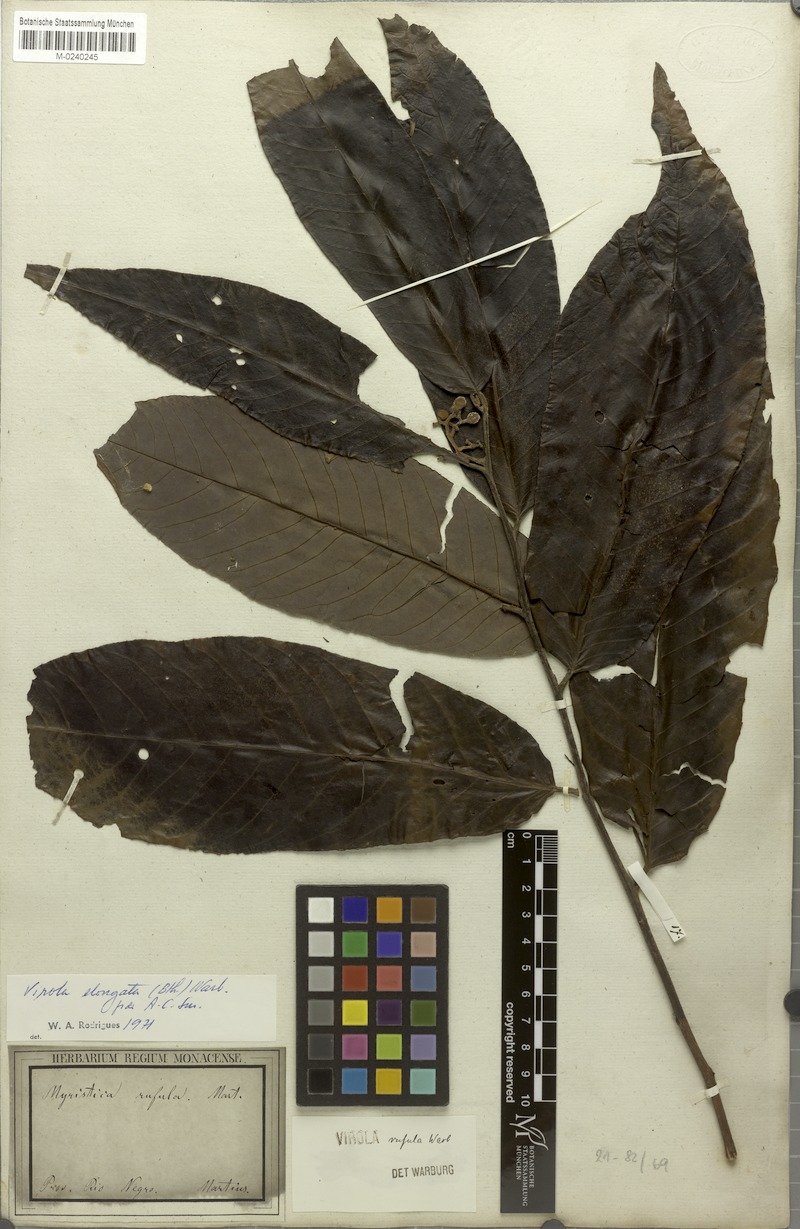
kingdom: Plantae
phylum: Tracheophyta
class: Magnoliopsida
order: Magnoliales
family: Myristicaceae
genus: Virola
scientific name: Virola elongata
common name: Sacred virola
